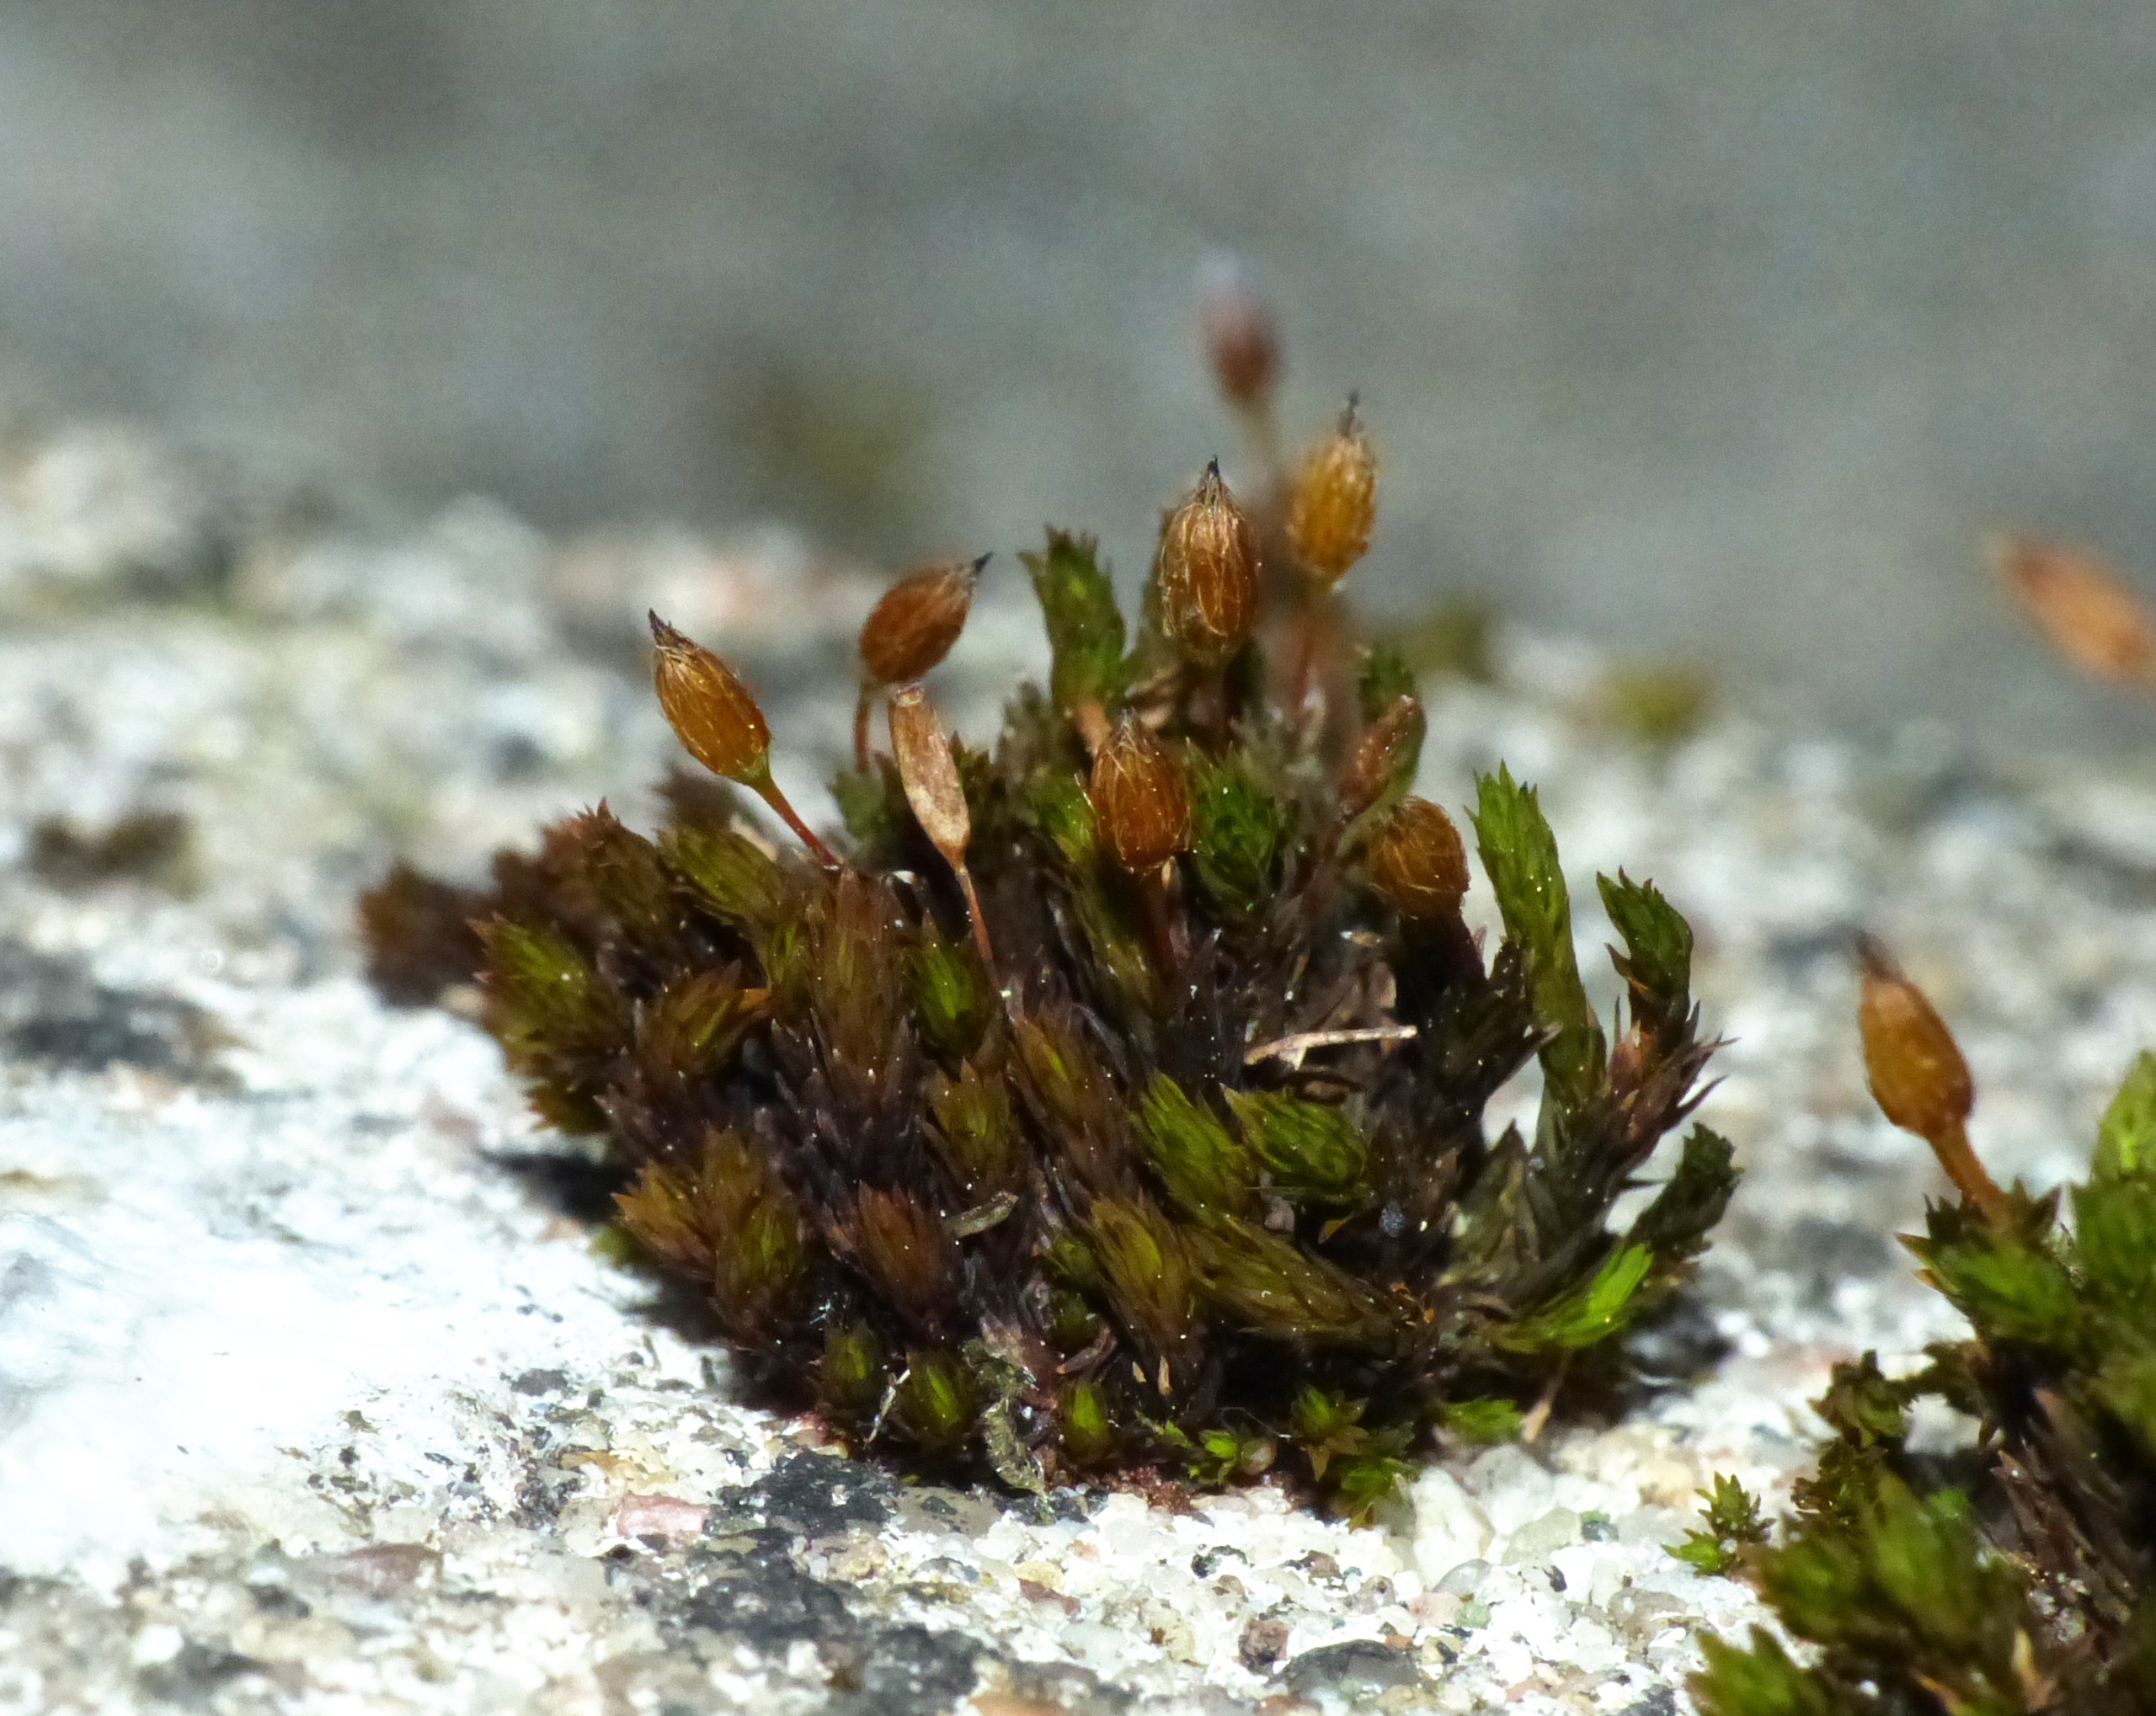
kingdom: Plantae
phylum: Bryophyta
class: Bryopsida
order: Orthotrichales
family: Orthotrichaceae
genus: Orthotrichum
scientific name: Orthotrichum anomalum
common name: Mørk furehætte
